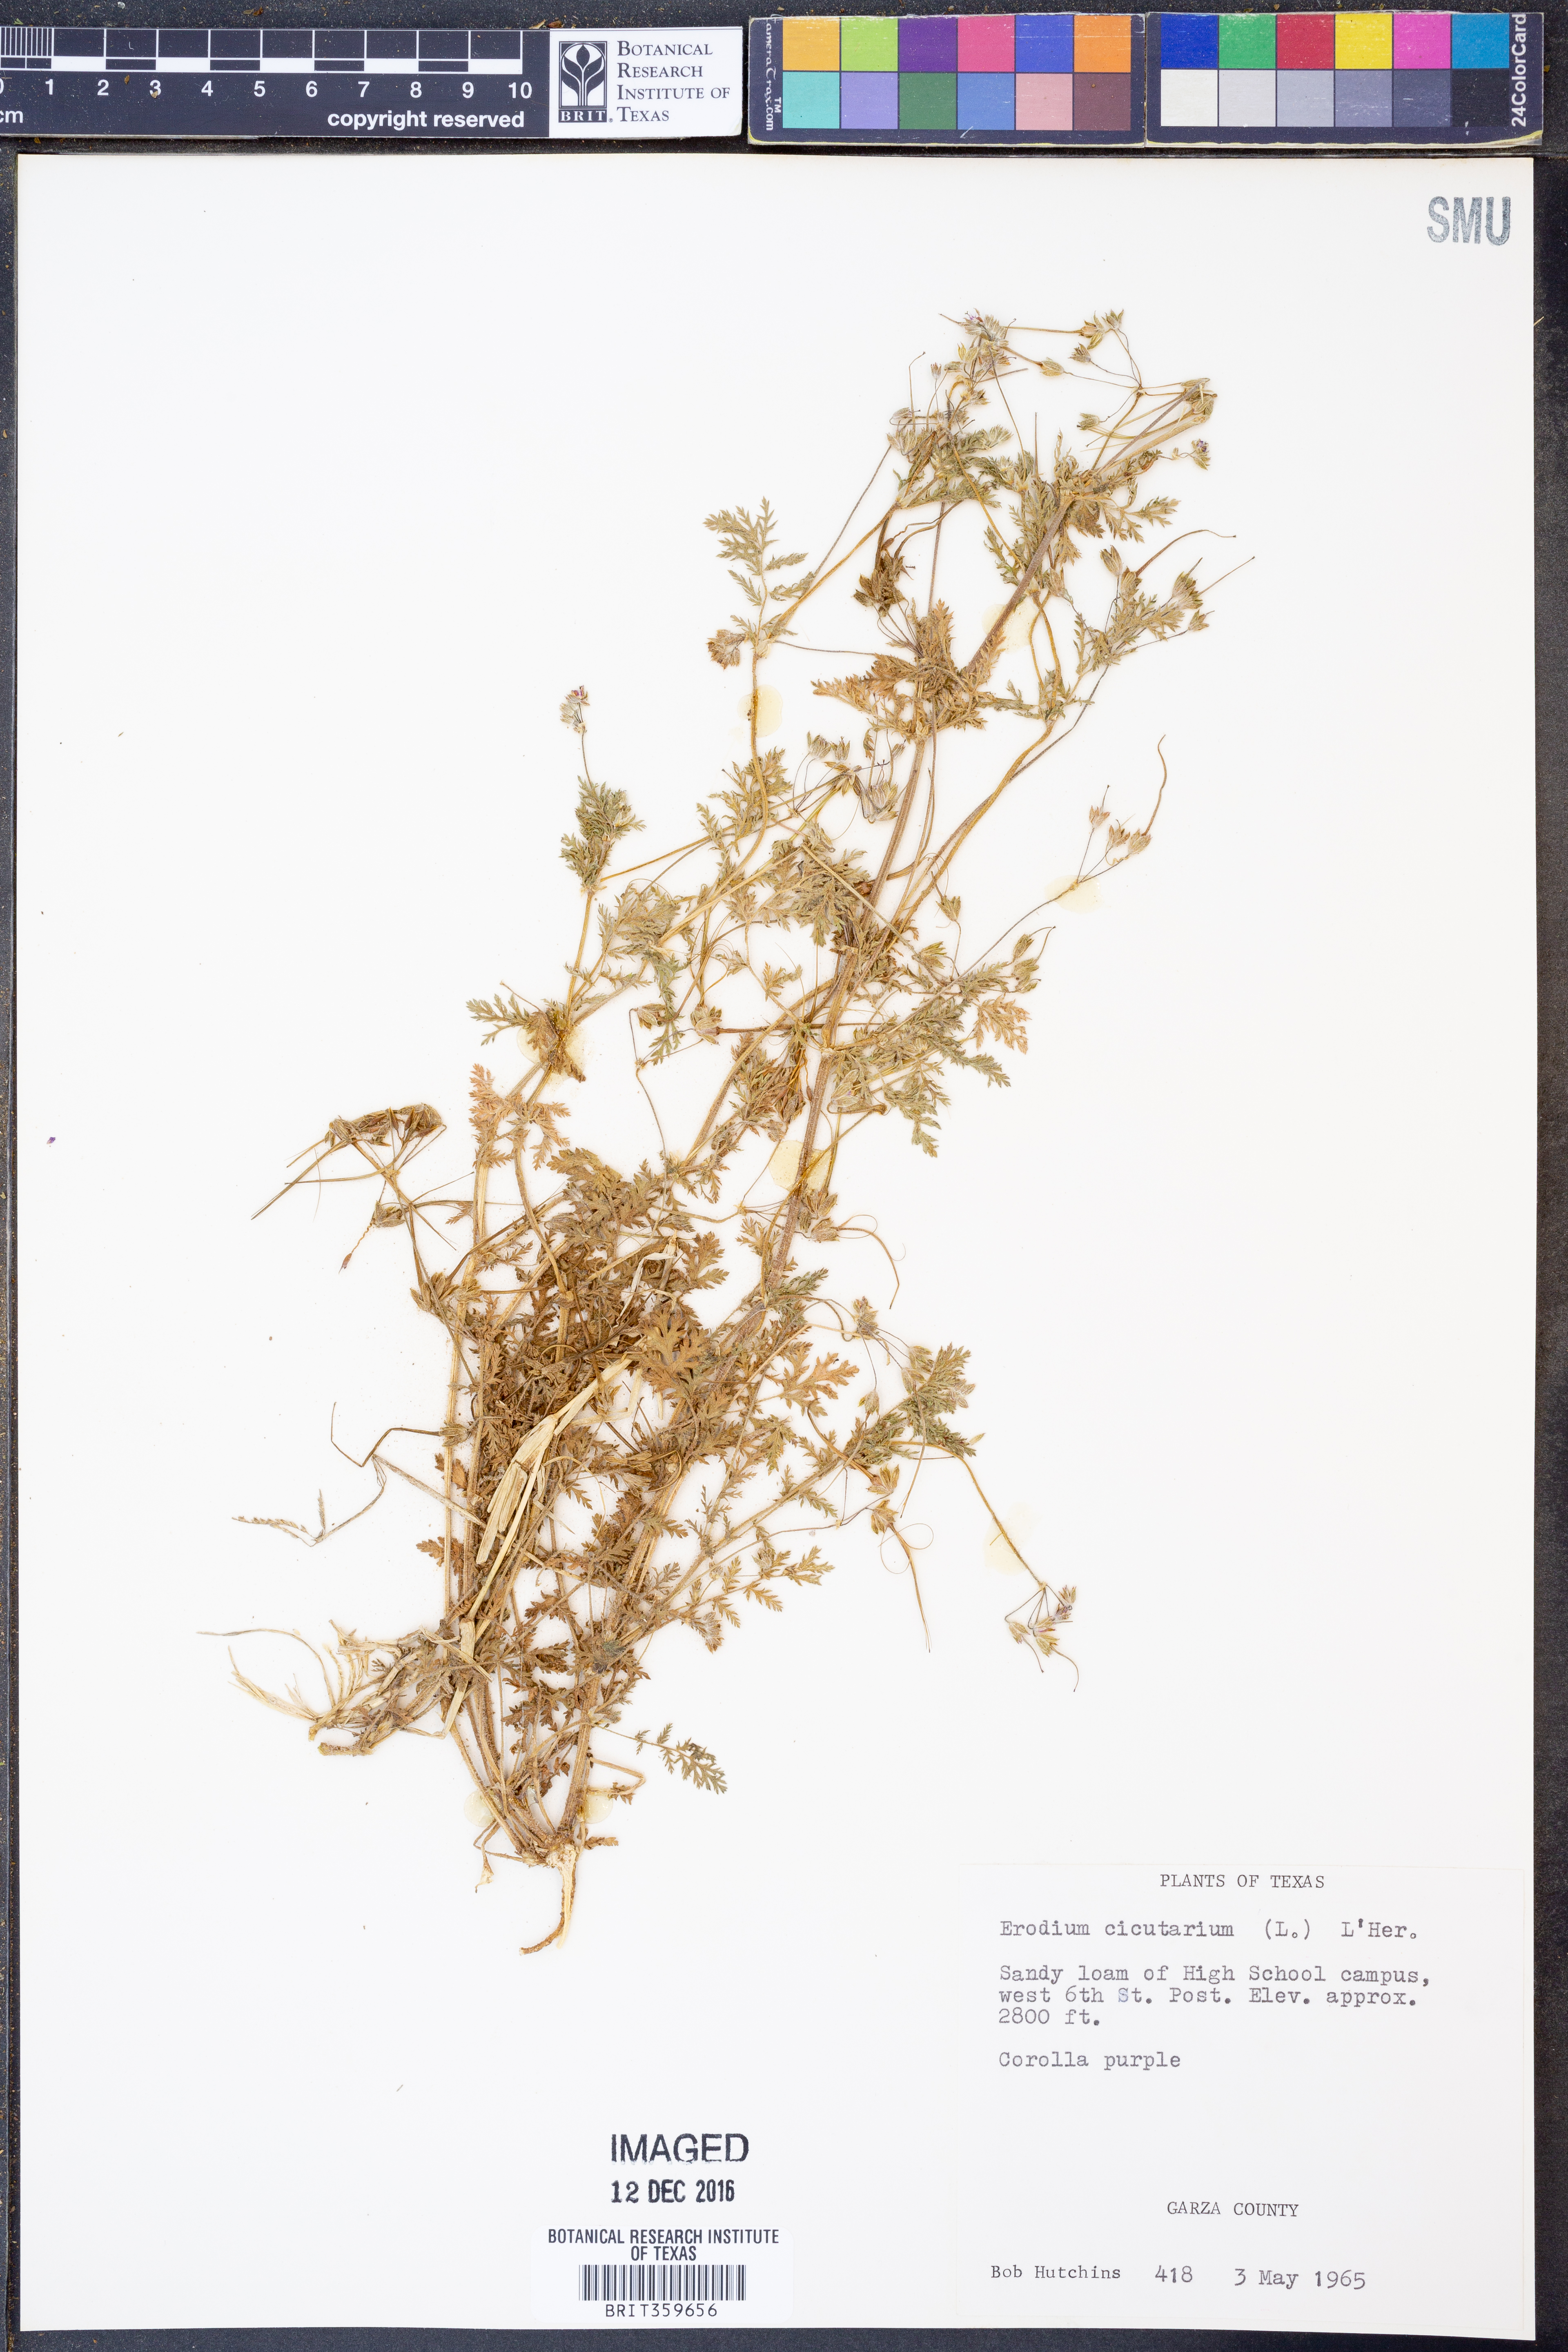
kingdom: Plantae
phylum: Tracheophyta
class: Magnoliopsida
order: Geraniales
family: Geraniaceae
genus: Erodium
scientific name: Erodium cicutarium
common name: Common stork's-bill
